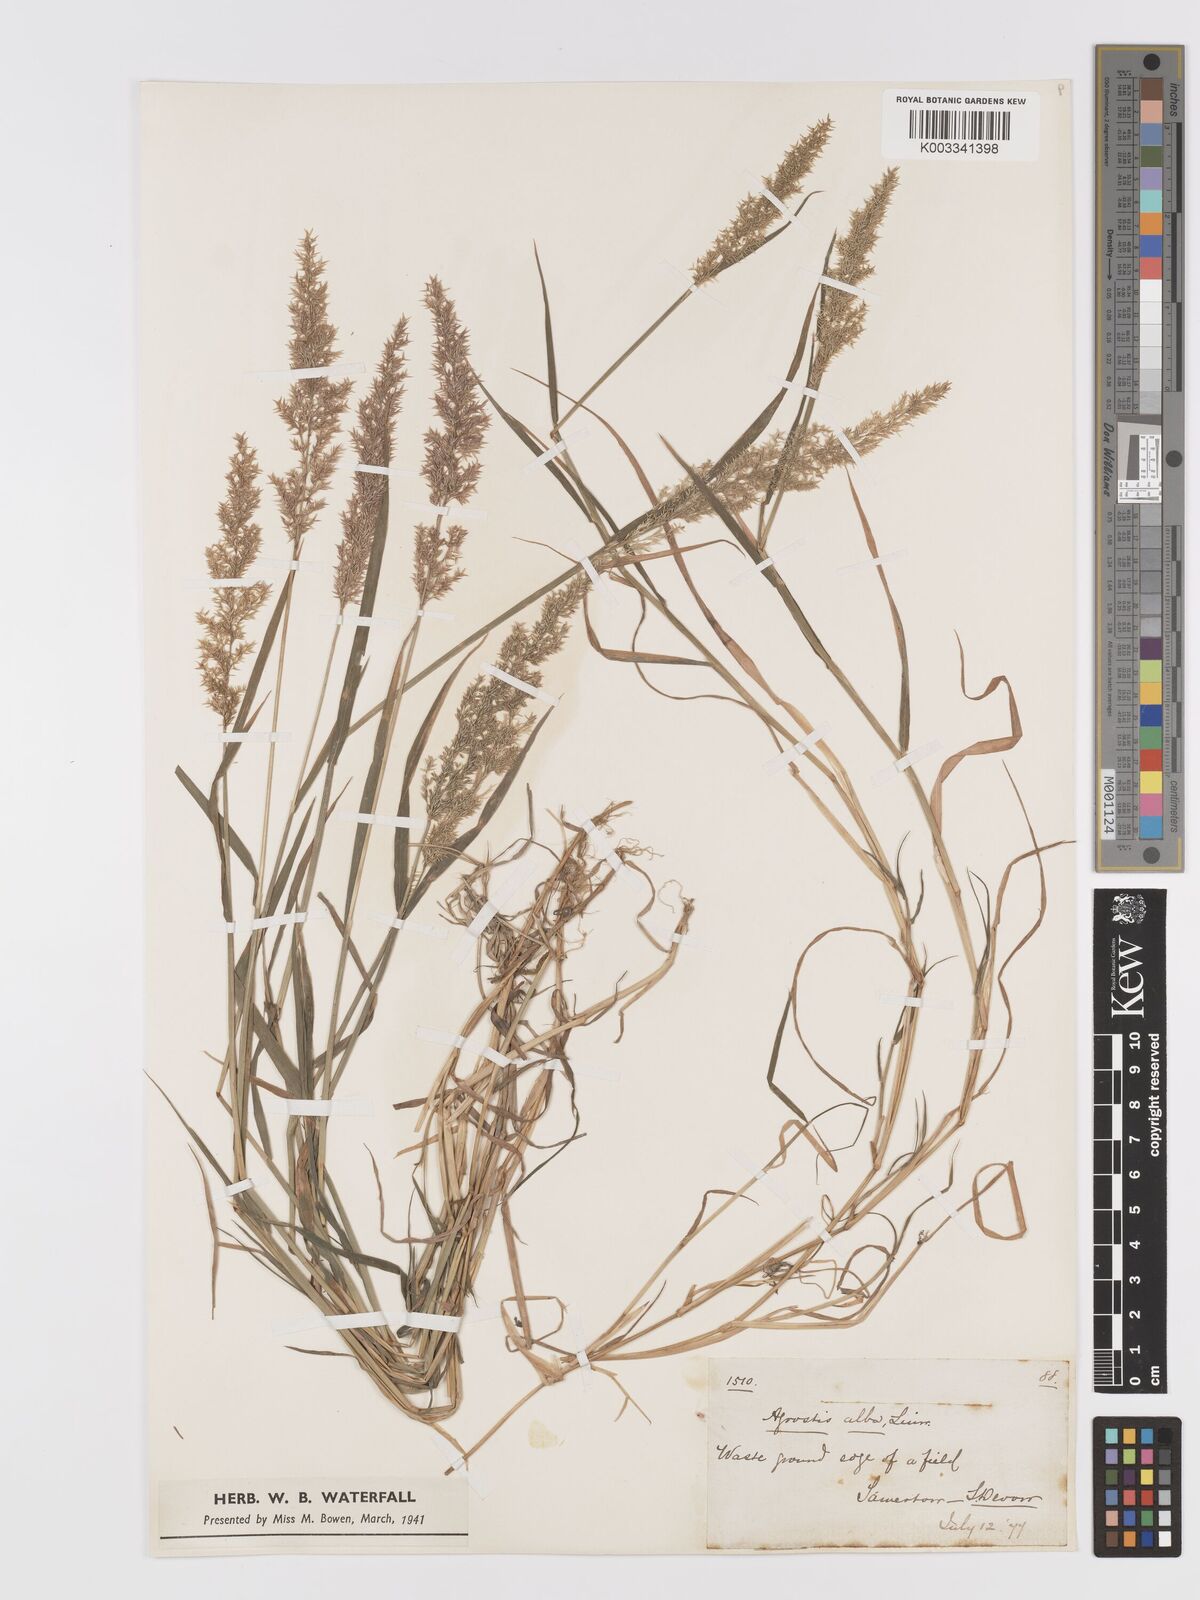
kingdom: Plantae
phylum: Tracheophyta
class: Liliopsida
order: Poales
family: Poaceae
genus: Agrostis
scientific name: Agrostis stolonifera
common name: Creeping bentgrass
